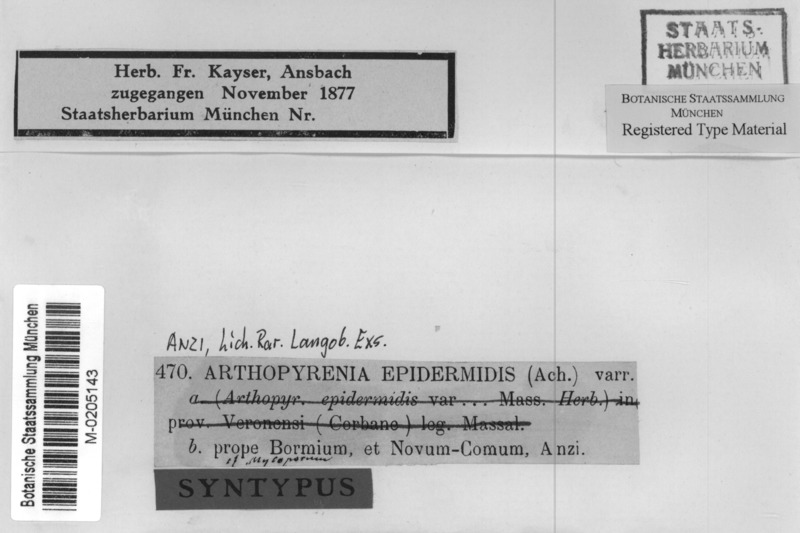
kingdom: Fungi
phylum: Ascomycota
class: Dothideomycetes
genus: Cyrtidula
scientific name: Cyrtidula hippocastani
